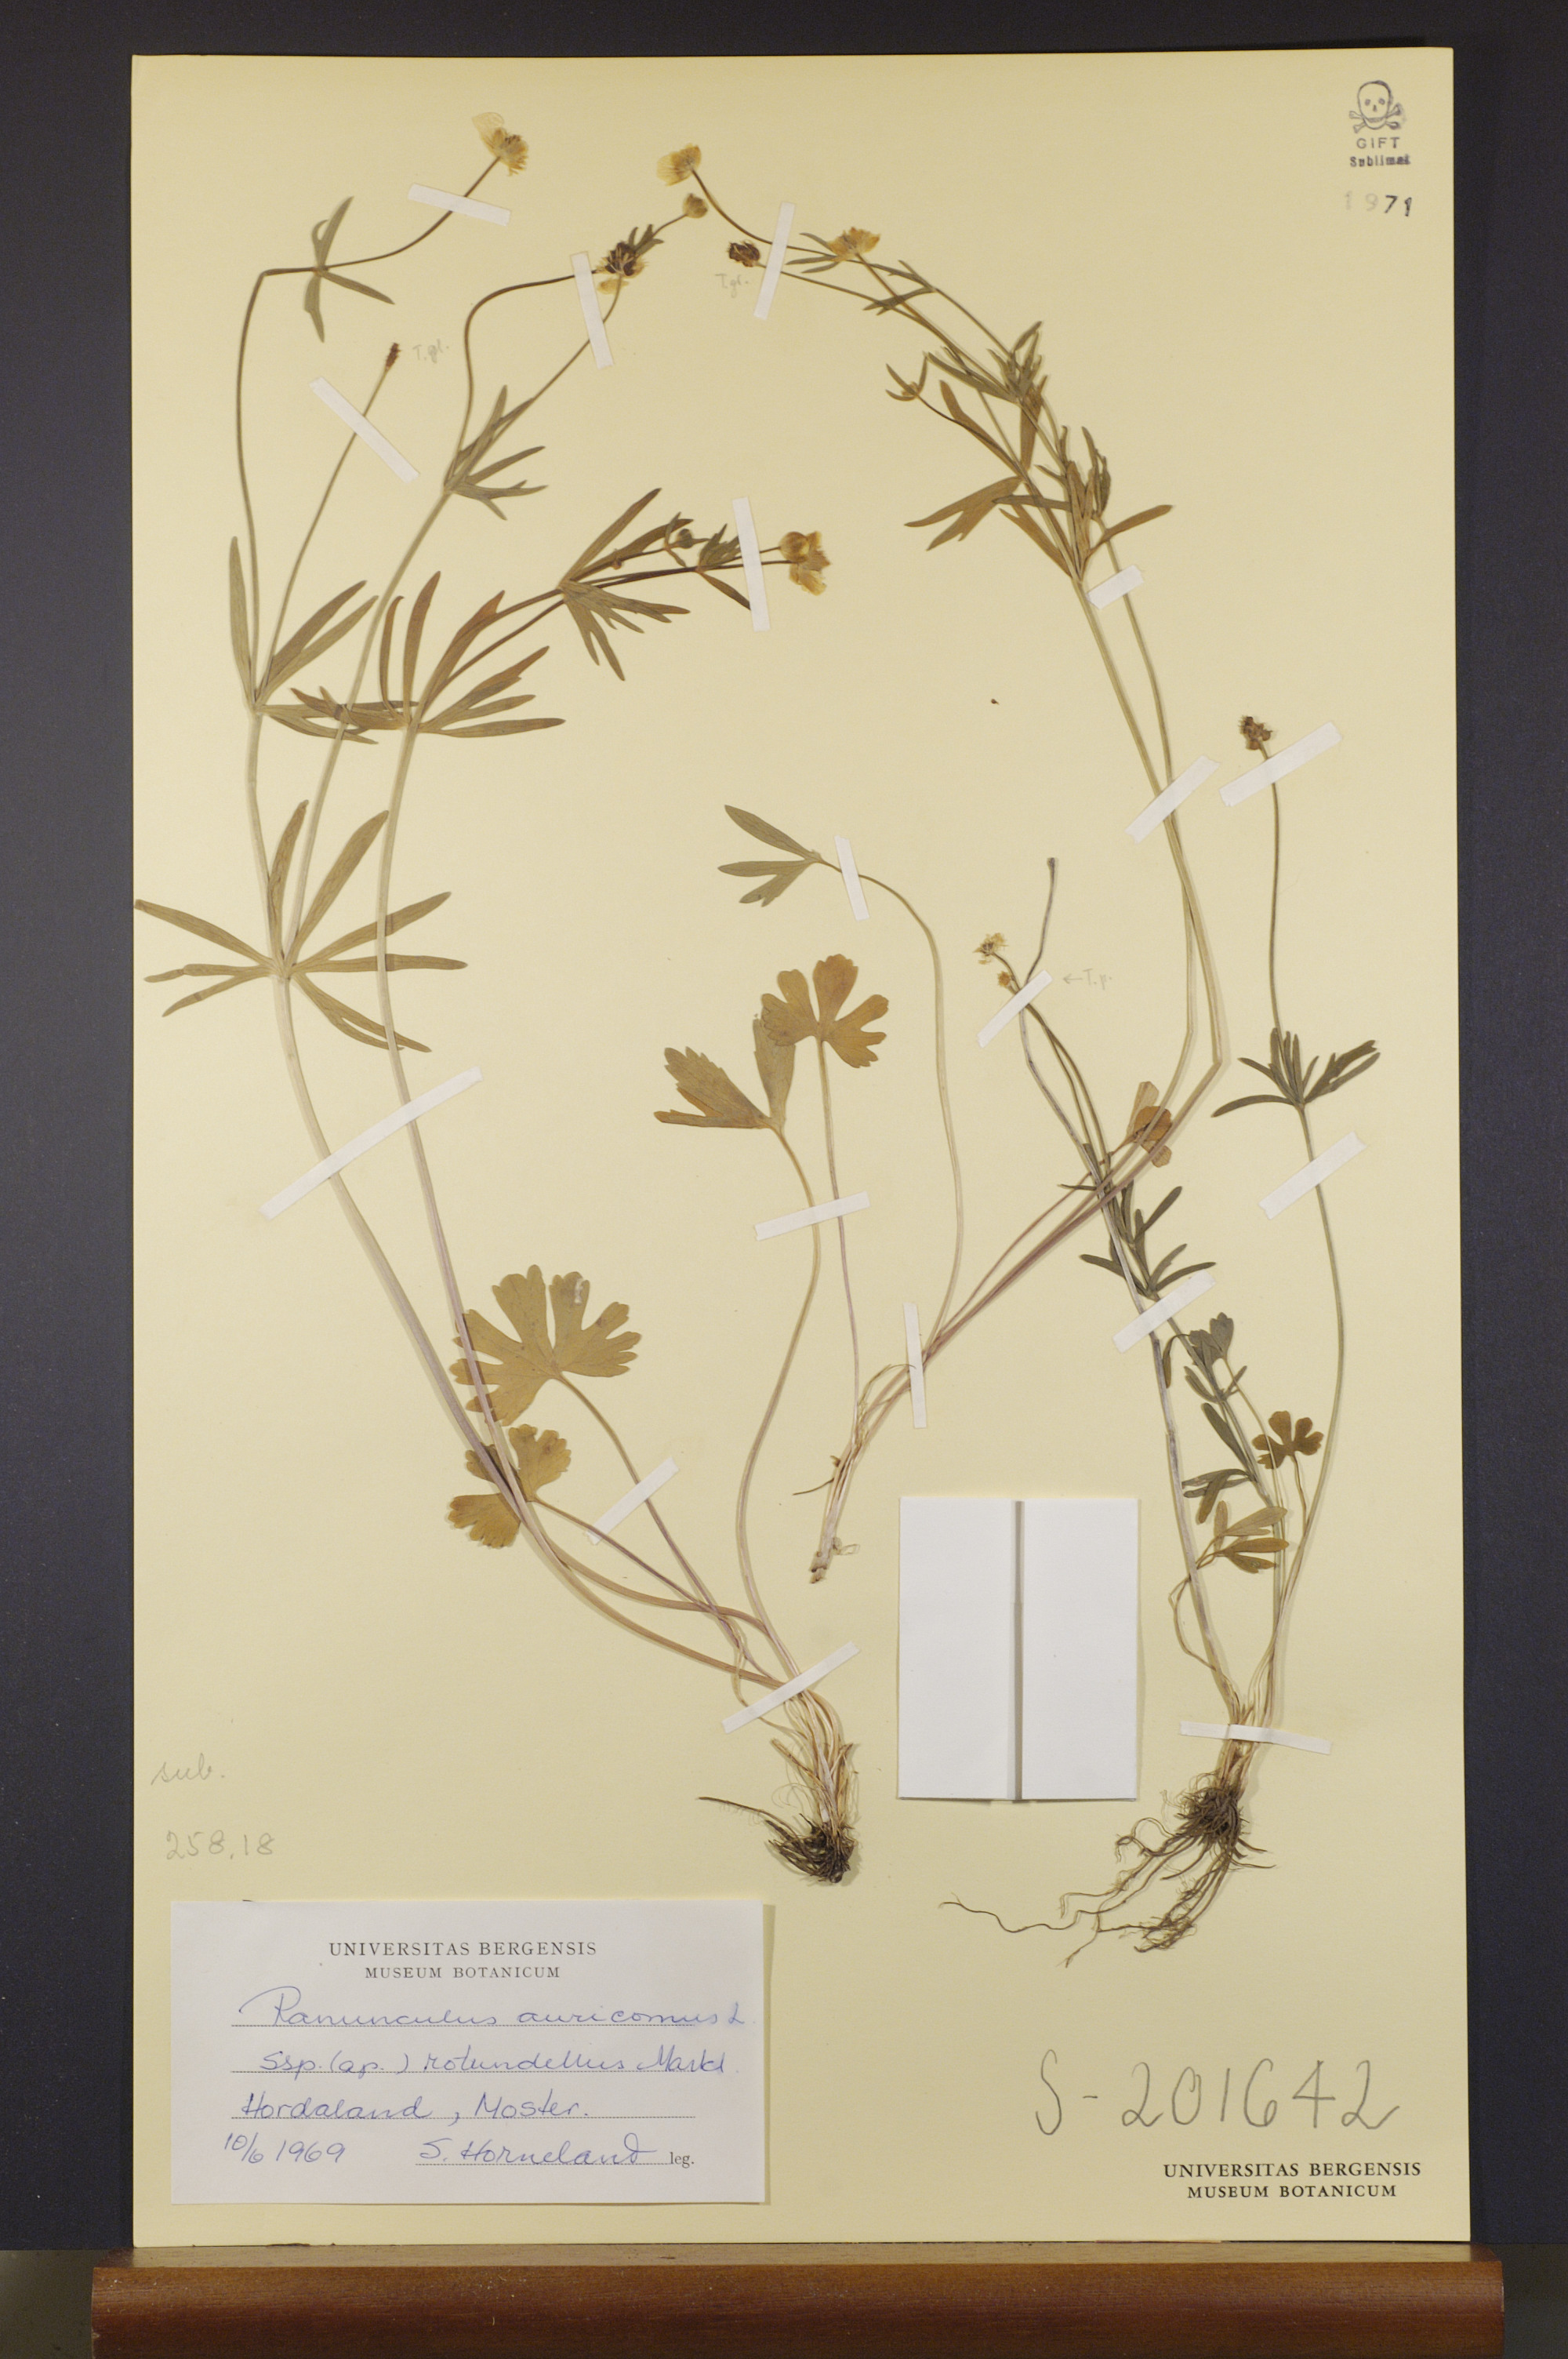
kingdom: Plantae
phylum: Tracheophyta
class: Magnoliopsida
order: Ranunculales
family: Ranunculaceae
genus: Ranunculus
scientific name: Ranunculus rotundellus
